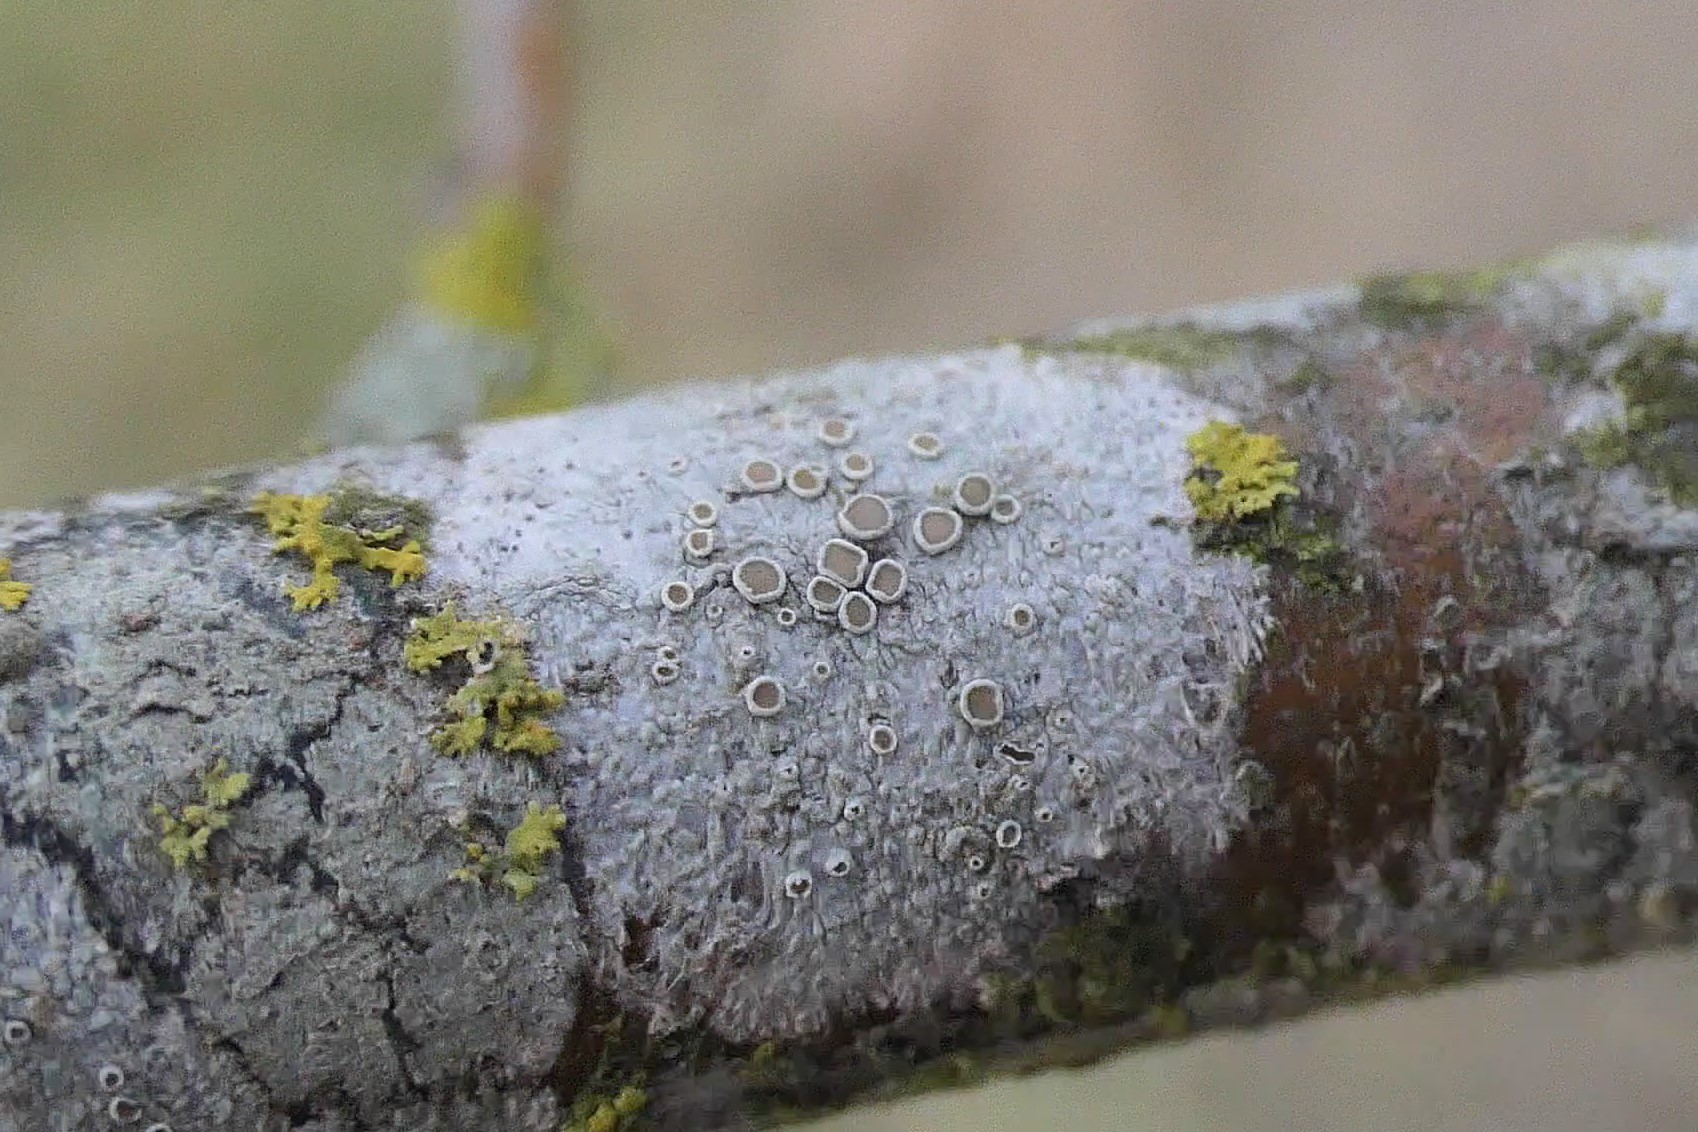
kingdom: Fungi
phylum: Ascomycota
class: Lecanoromycetes
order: Lecanorales
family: Lecanoraceae
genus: Lecanora
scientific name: Lecanora chlarotera
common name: brun kantskivelav
